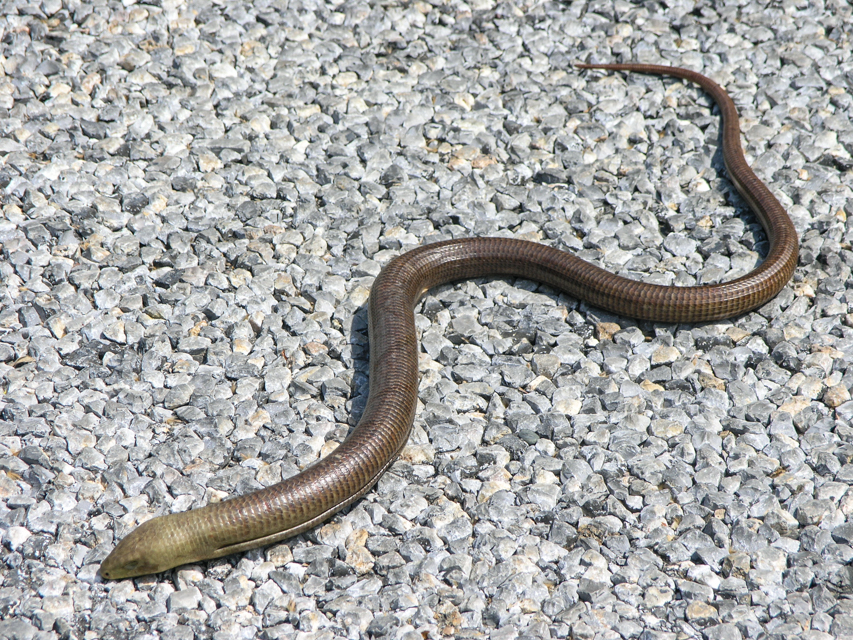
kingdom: Animalia
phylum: Chordata
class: Squamata
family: Anguidae
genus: Pseudopus
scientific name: Pseudopus apodus
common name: European glass lizard
